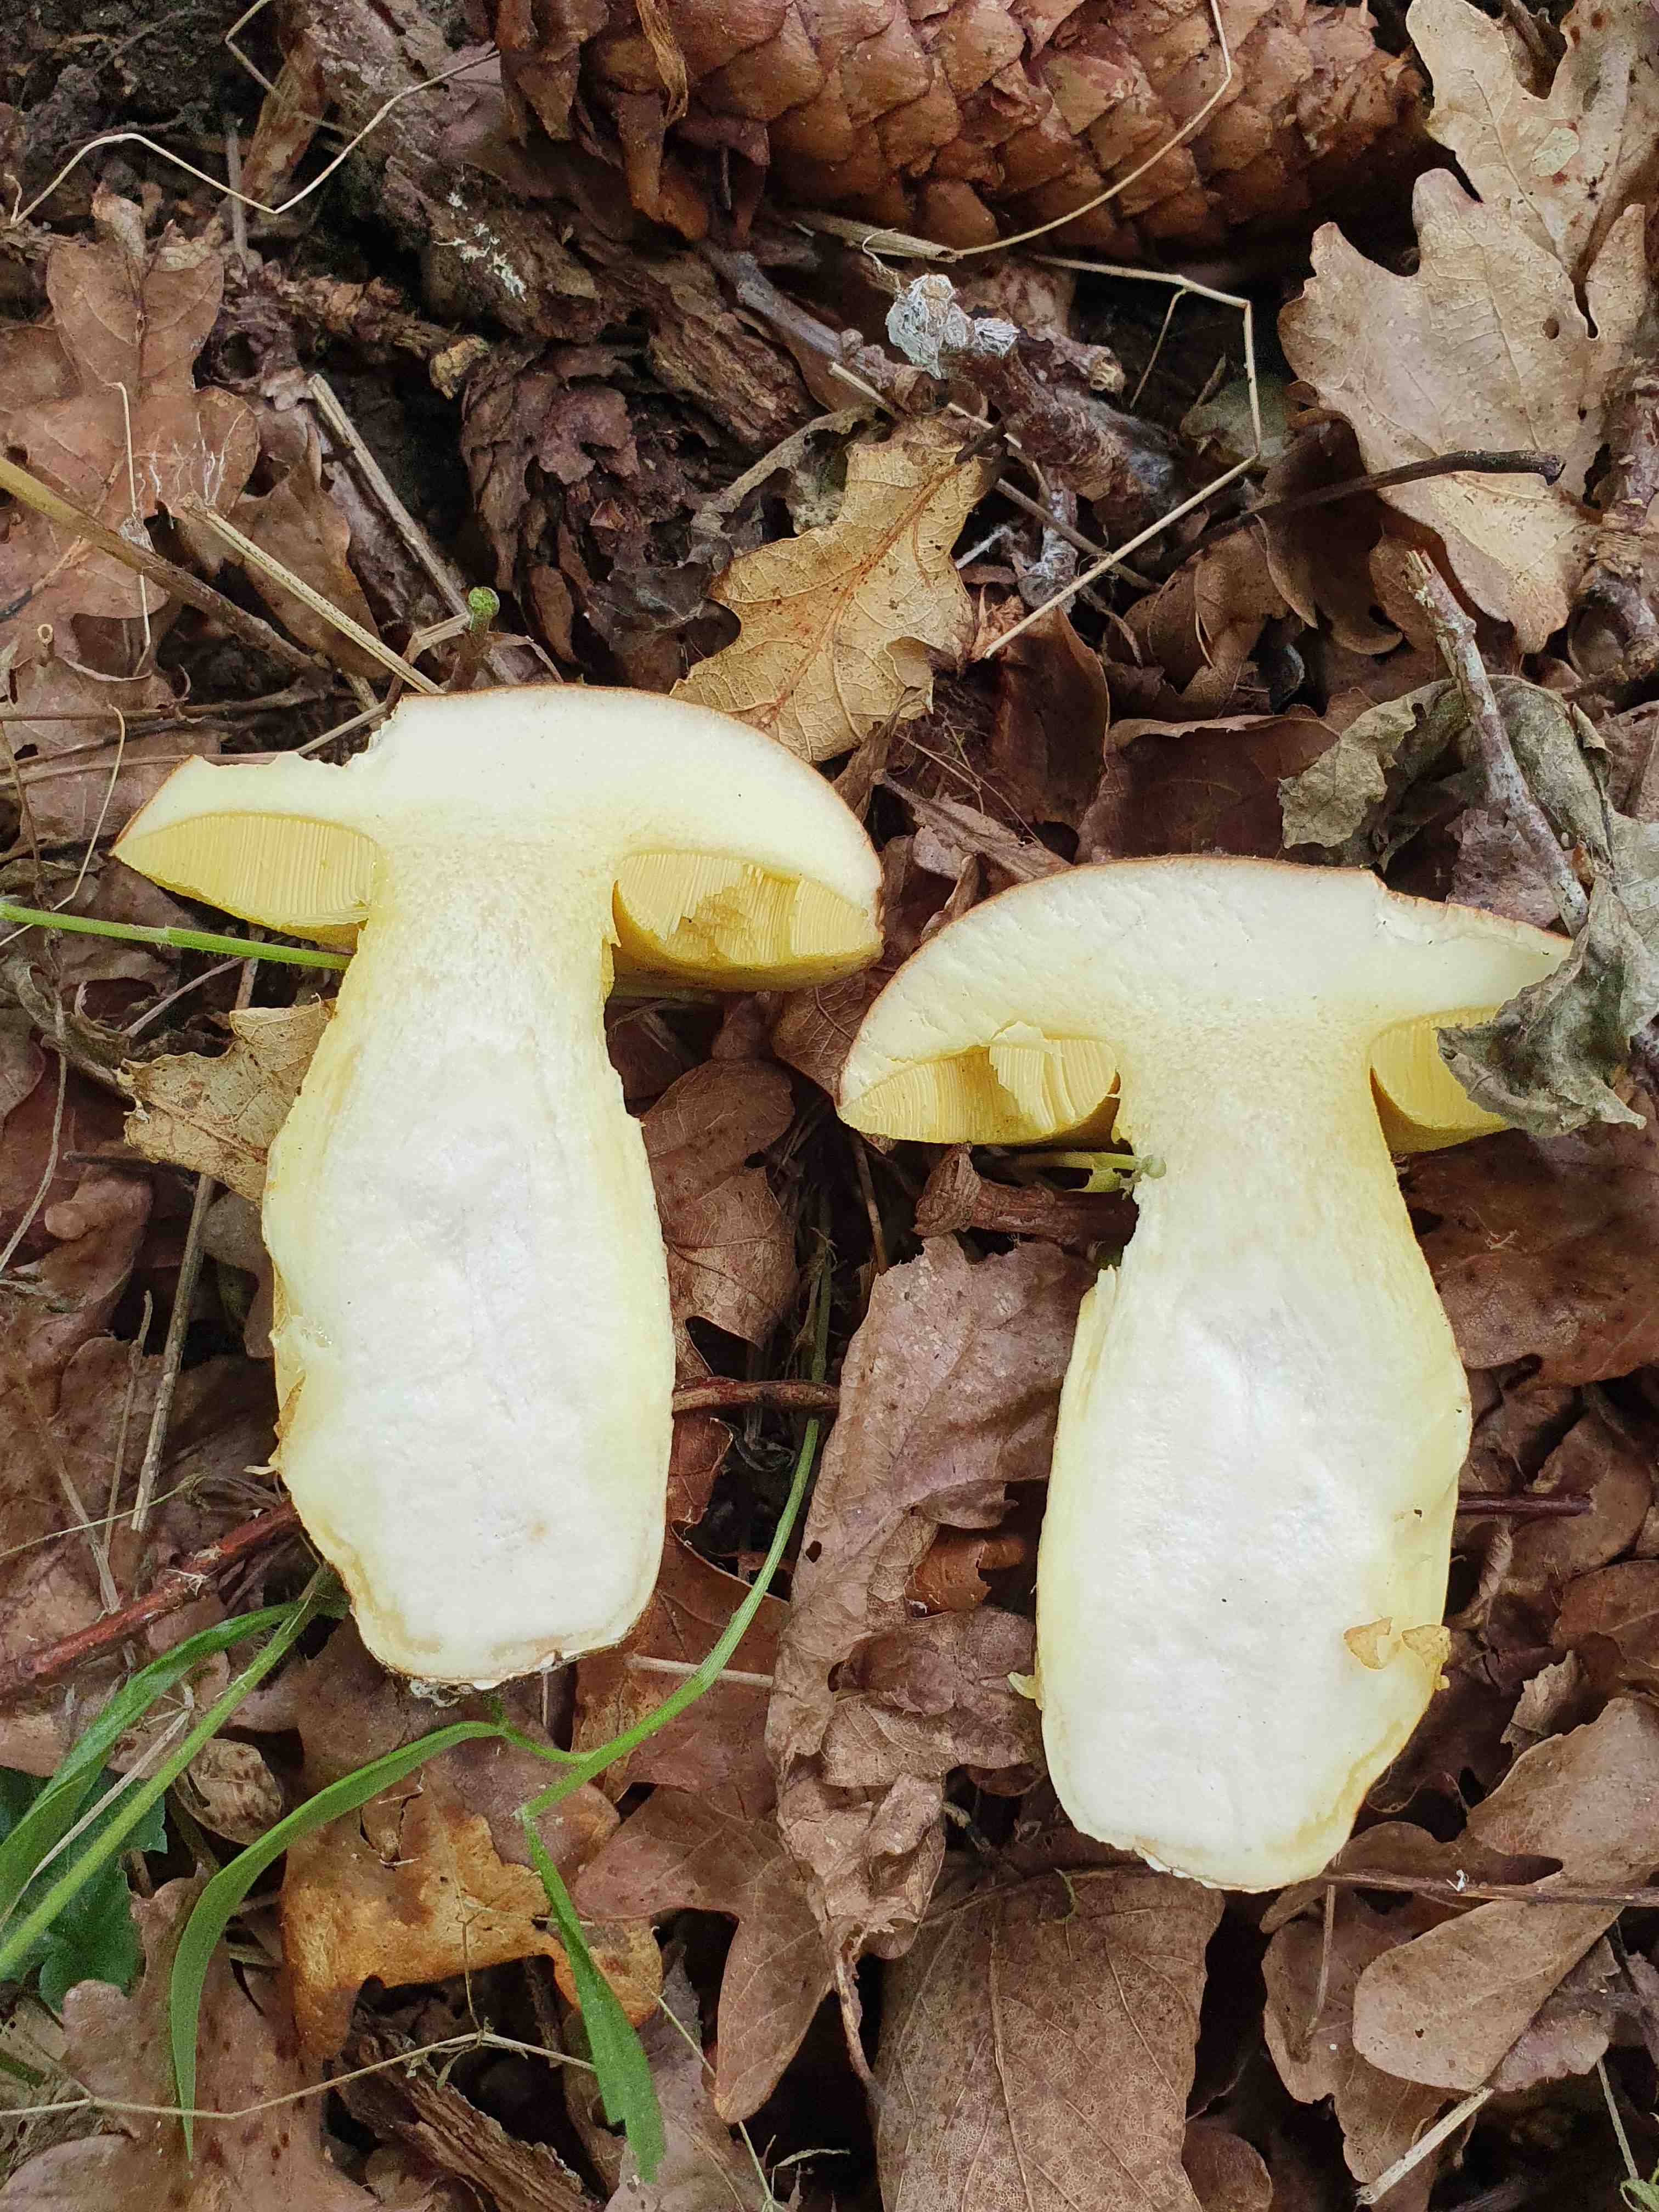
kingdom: Fungi
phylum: Basidiomycota
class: Agaricomycetes
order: Boletales
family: Boletaceae
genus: Hemileccinum
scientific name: Hemileccinum impolitum
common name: bleg rørhat
